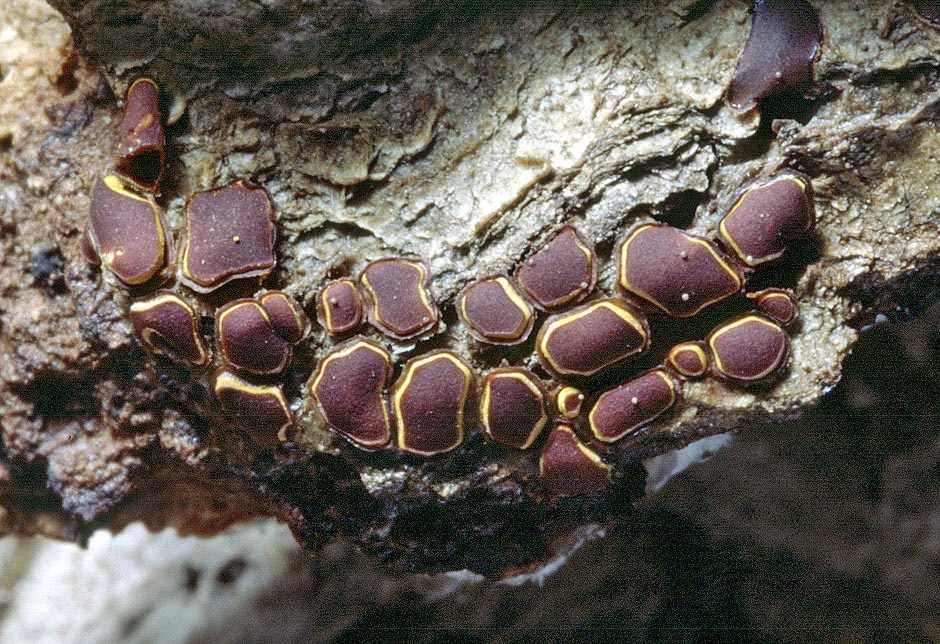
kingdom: Protozoa
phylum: Mycetozoa
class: Myxomycetes
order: Trichiales
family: Trichiaceae
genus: Perichaena
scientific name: Perichaena depressa
